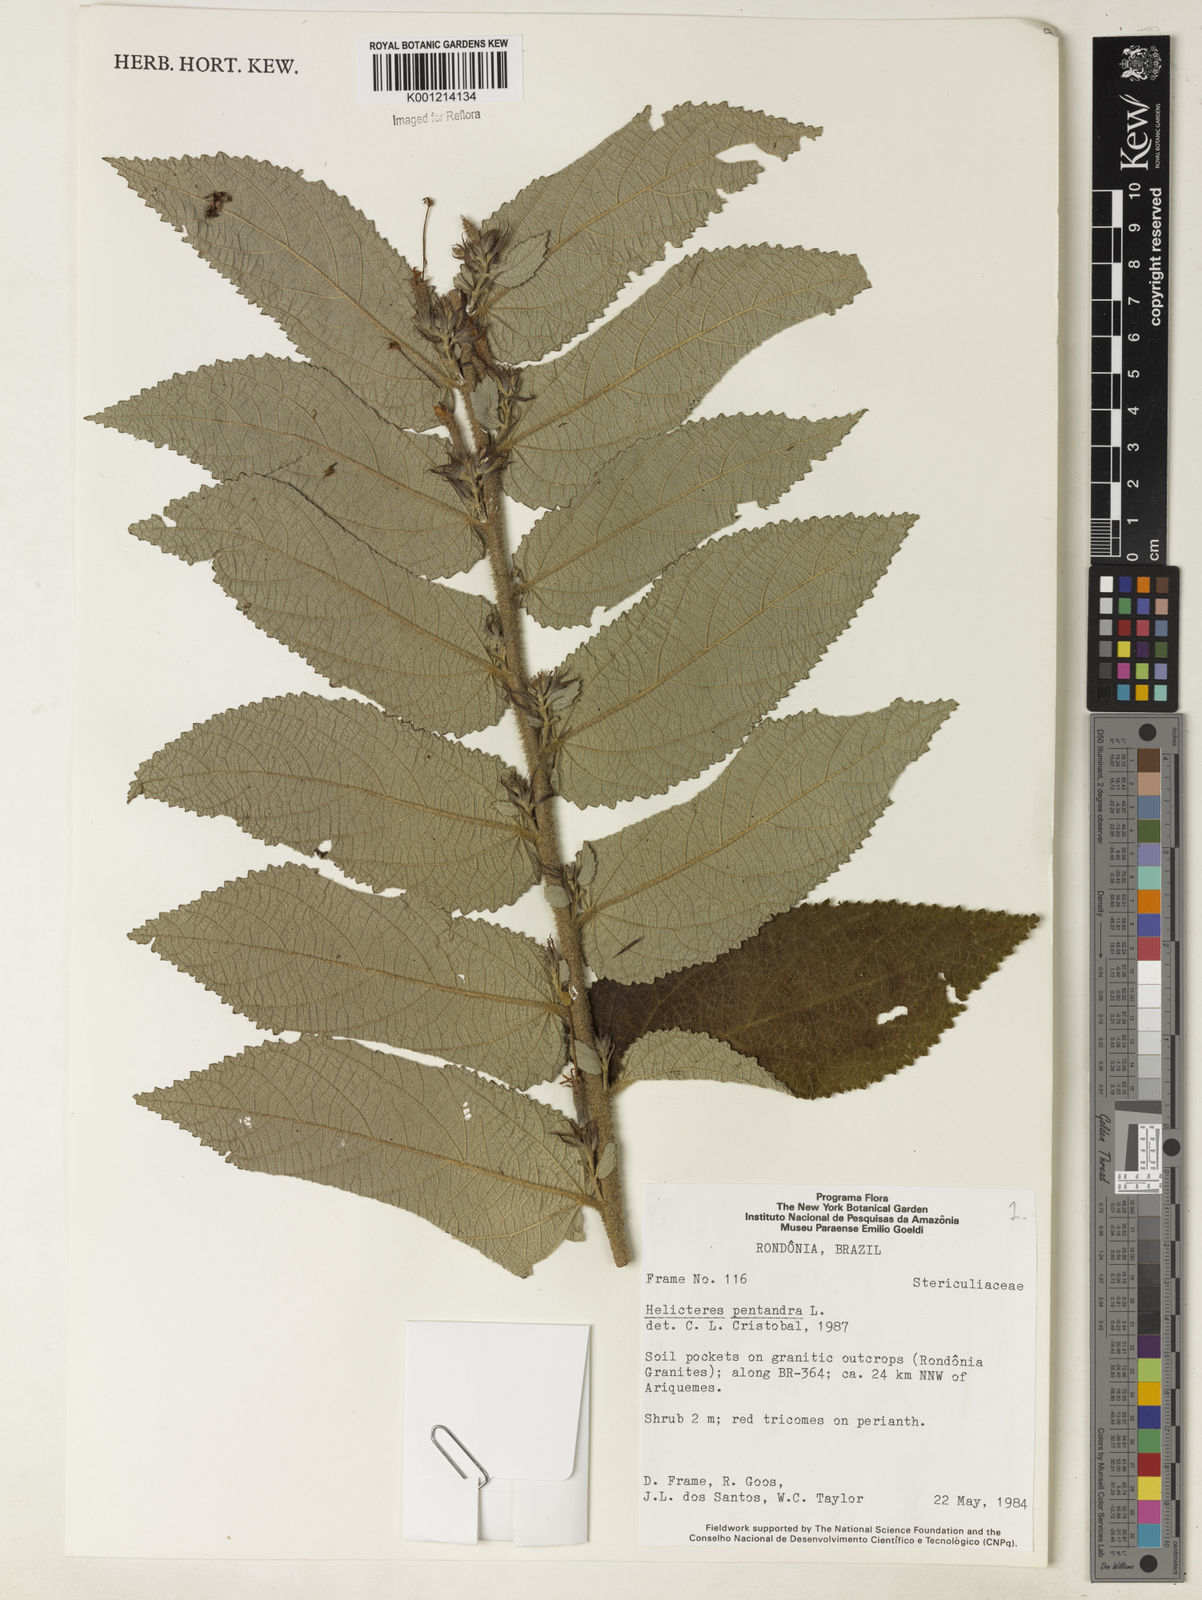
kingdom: Plantae
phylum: Tracheophyta
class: Magnoliopsida
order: Malvales
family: Malvaceae
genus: Helicteres
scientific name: Helicteres pentandra
